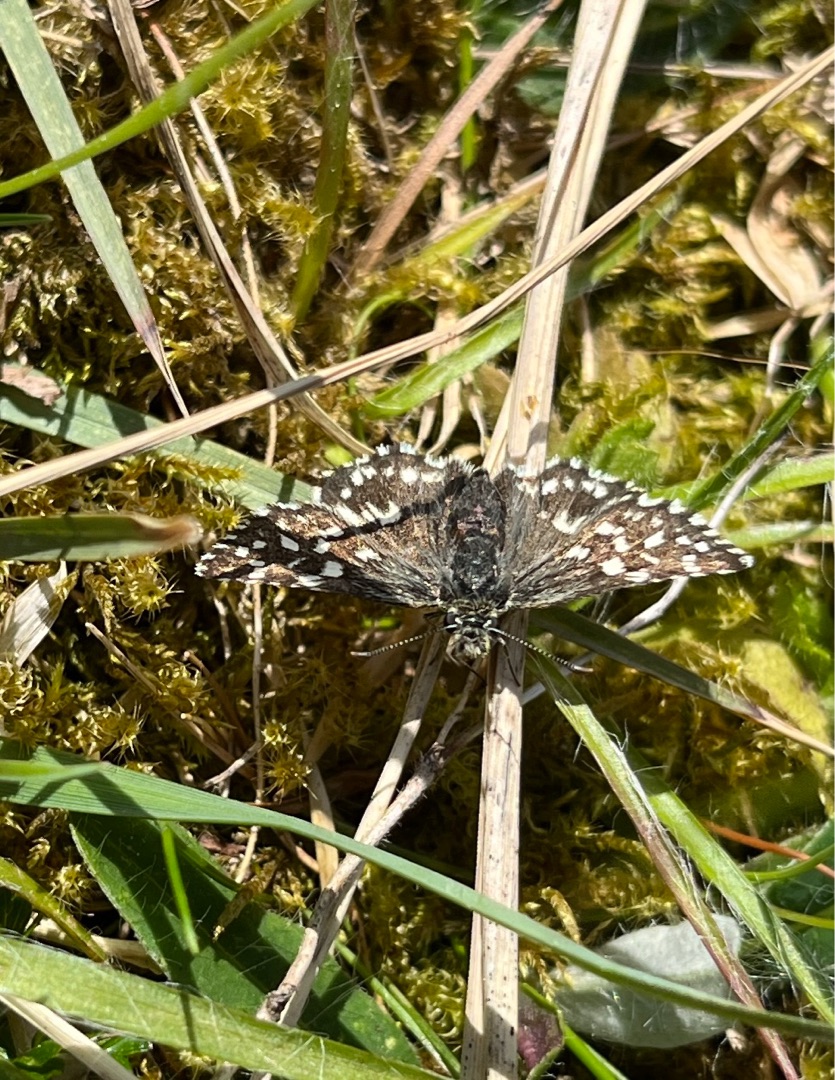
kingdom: Animalia
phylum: Arthropoda
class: Insecta
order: Lepidoptera
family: Hesperiidae
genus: Pyrgus
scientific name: Pyrgus malvae
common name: Spættet bredpande
